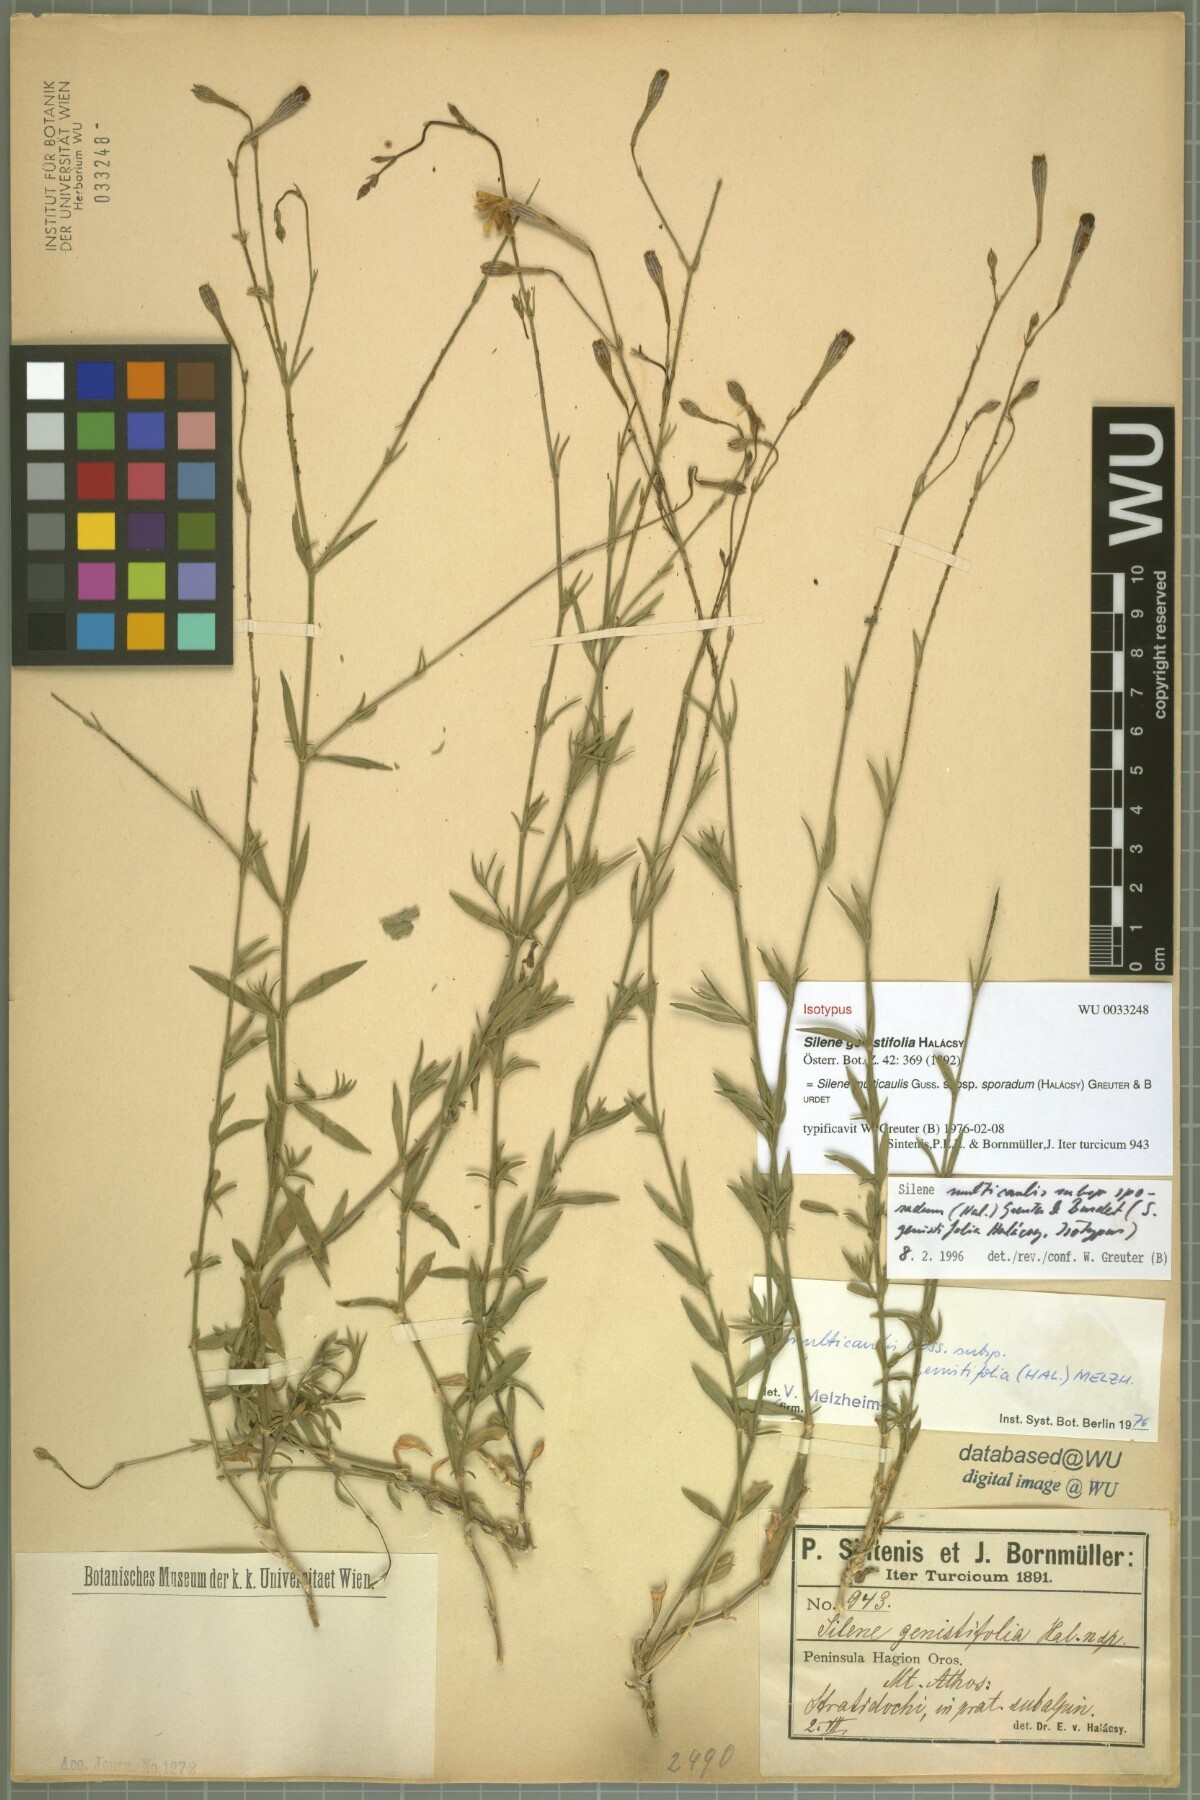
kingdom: Plantae
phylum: Tracheophyta
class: Magnoliopsida
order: Caryophyllales
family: Caryophyllaceae
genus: Silene
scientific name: Silene multicaulis
